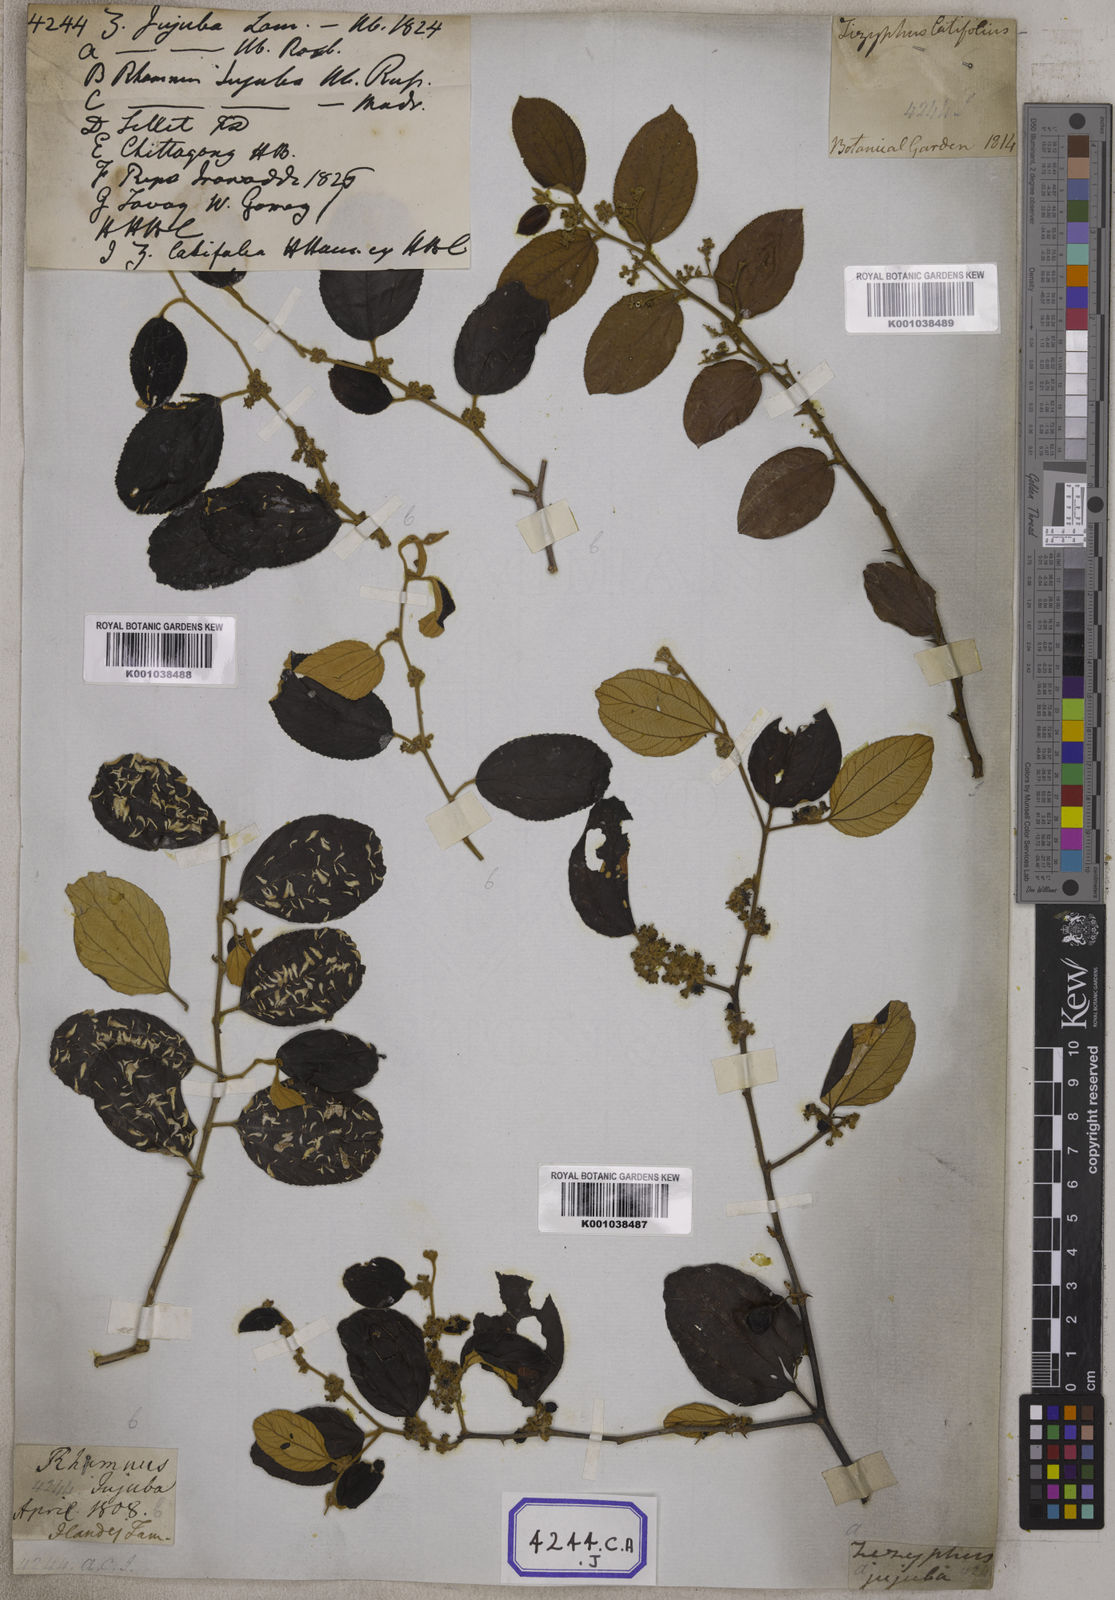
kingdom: Plantae
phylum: Tracheophyta
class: Magnoliopsida
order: Rosales
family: Rhamnaceae
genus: Ziziphus
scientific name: Ziziphus
